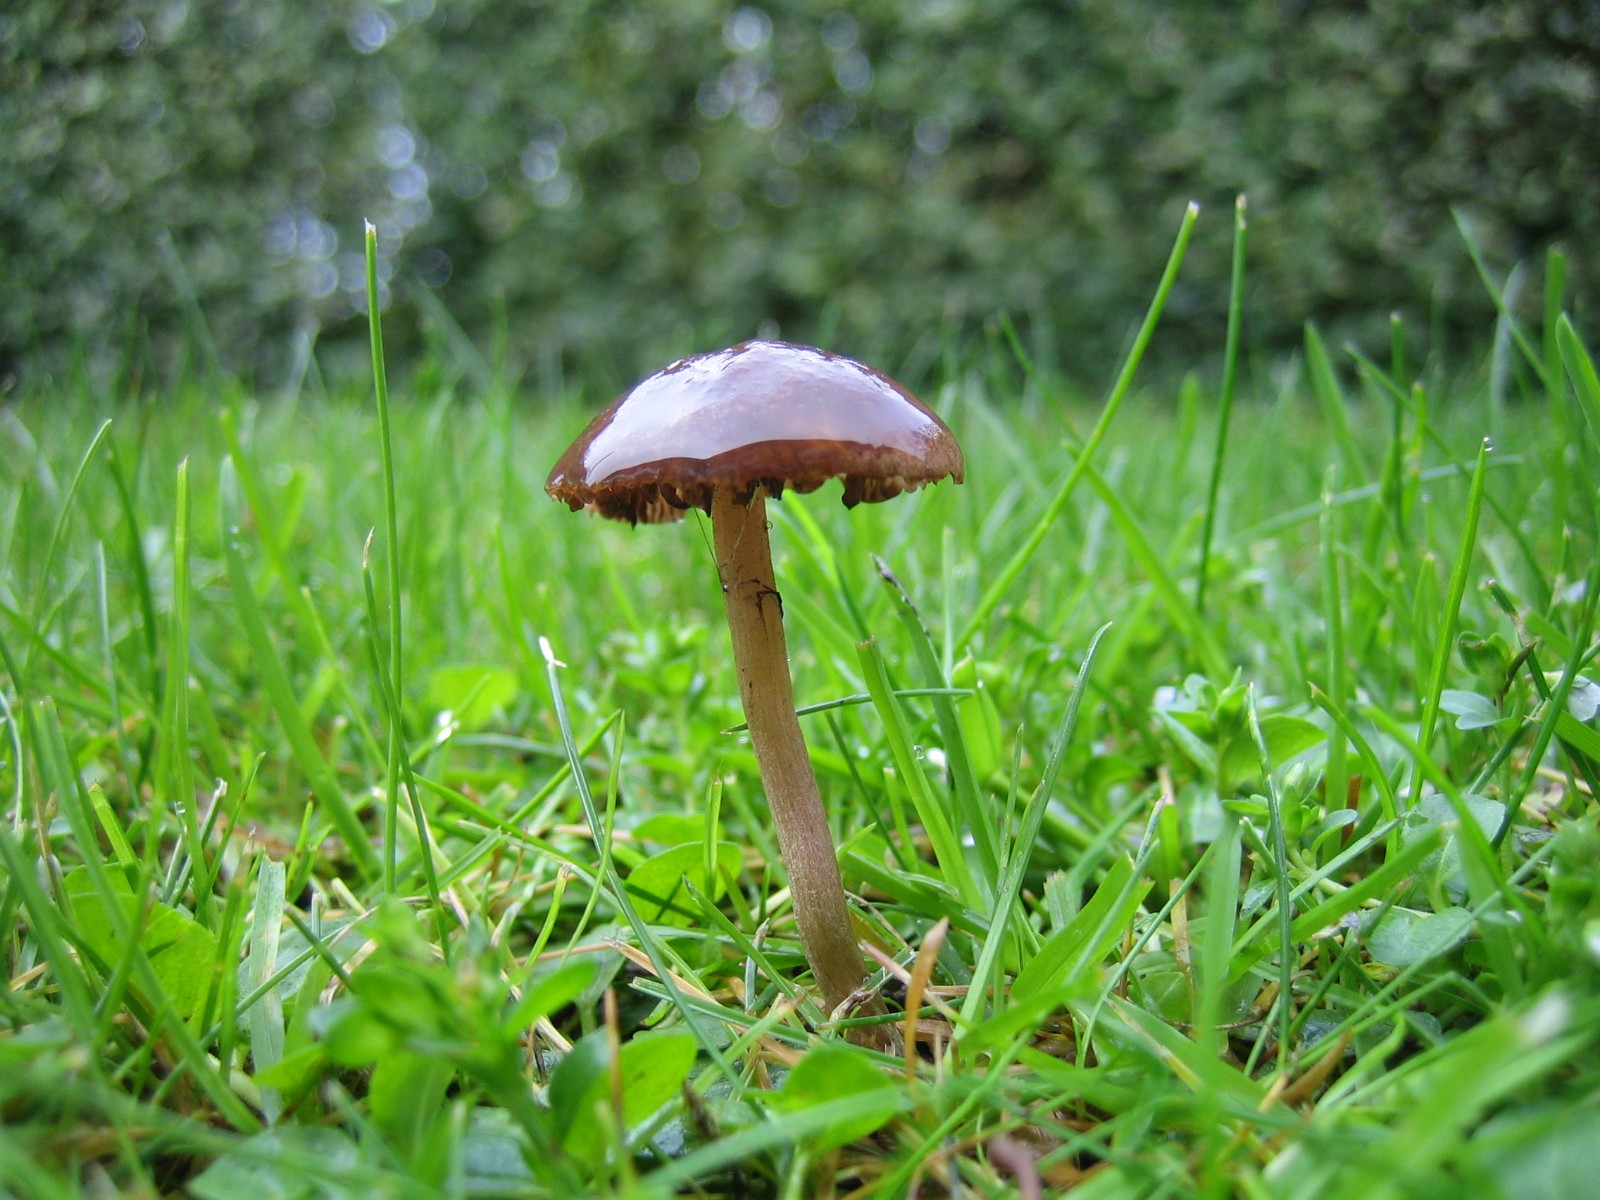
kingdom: Fungi
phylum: Basidiomycota
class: Agaricomycetes
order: Agaricales
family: Bolbitiaceae
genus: Panaeolina
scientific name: Panaeolina foenisecii
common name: høslætsvamp
